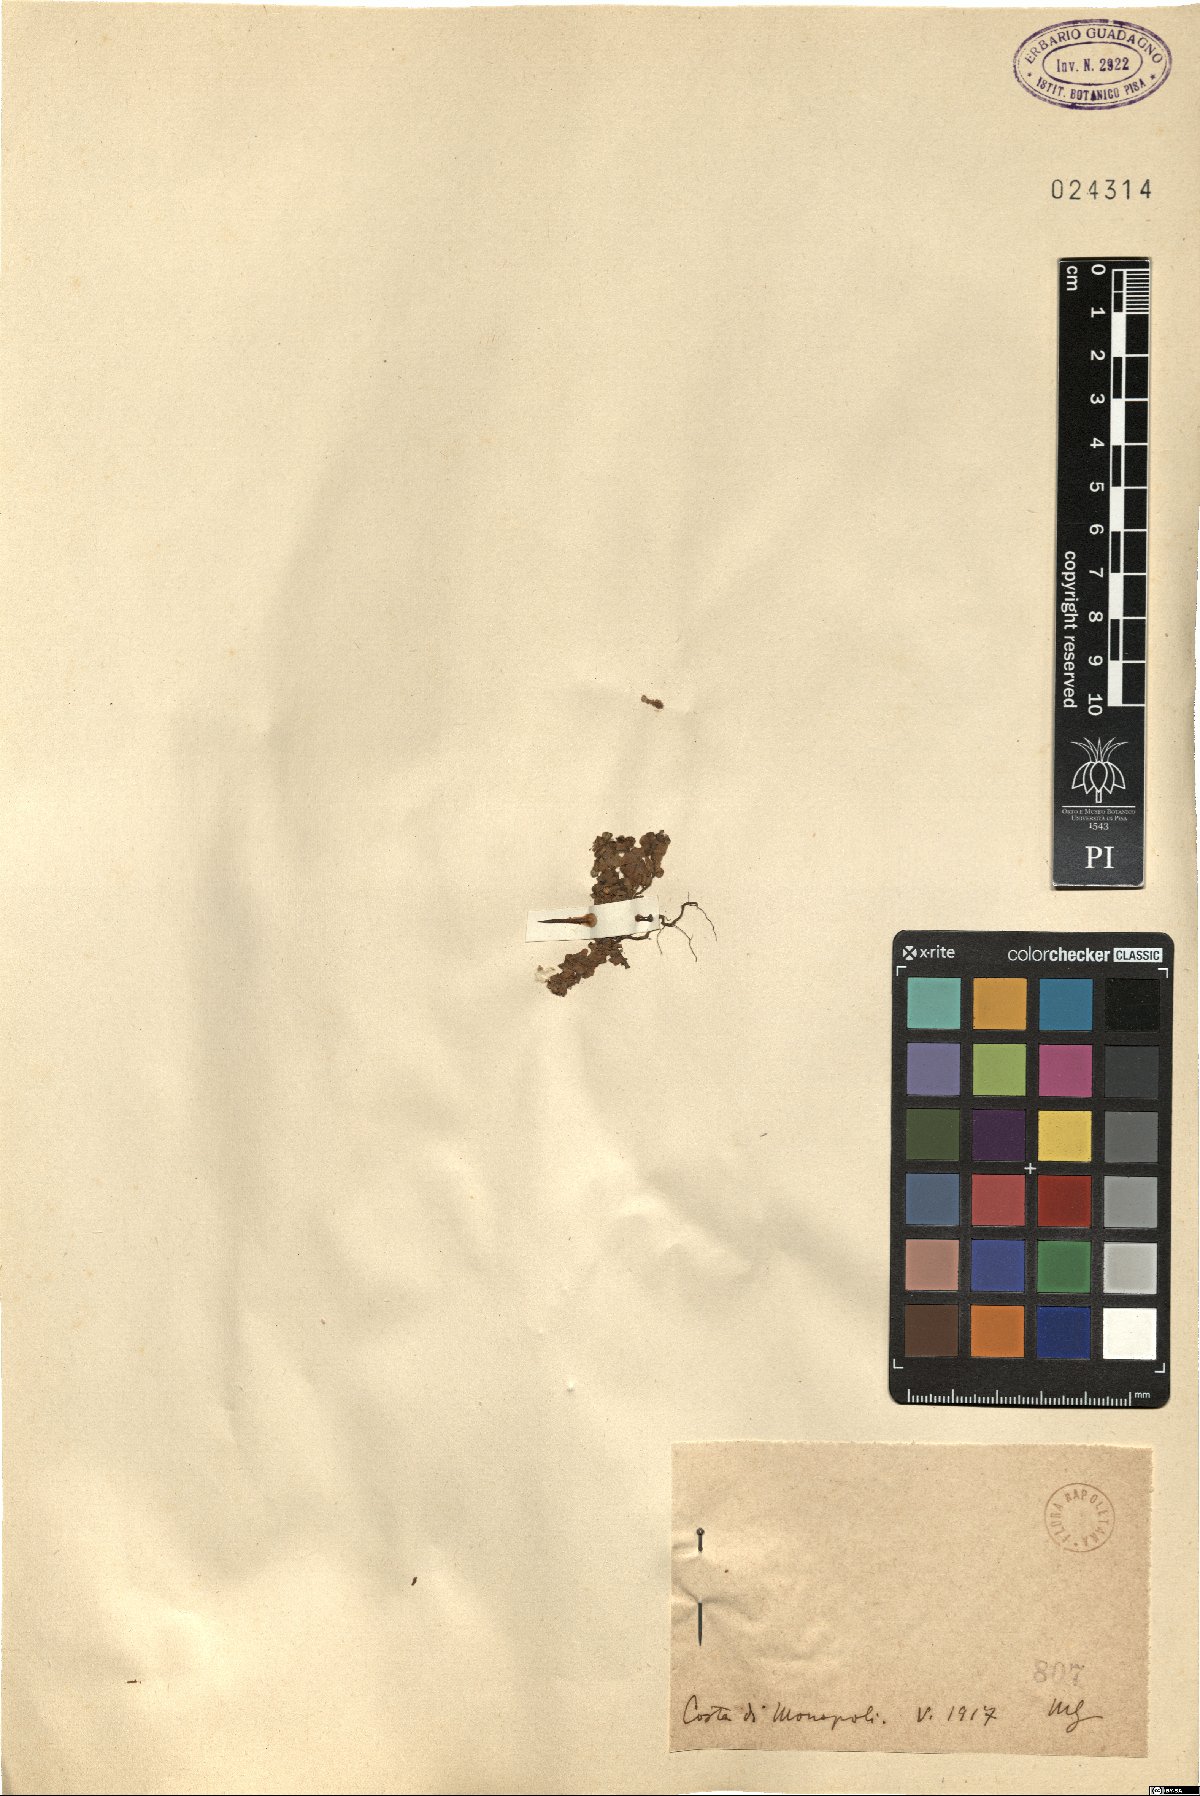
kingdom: Plantae
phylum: Tracheophyta
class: Magnoliopsida
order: Malpighiales
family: Euphorbiaceae
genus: Euphorbia
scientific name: Euphorbia
